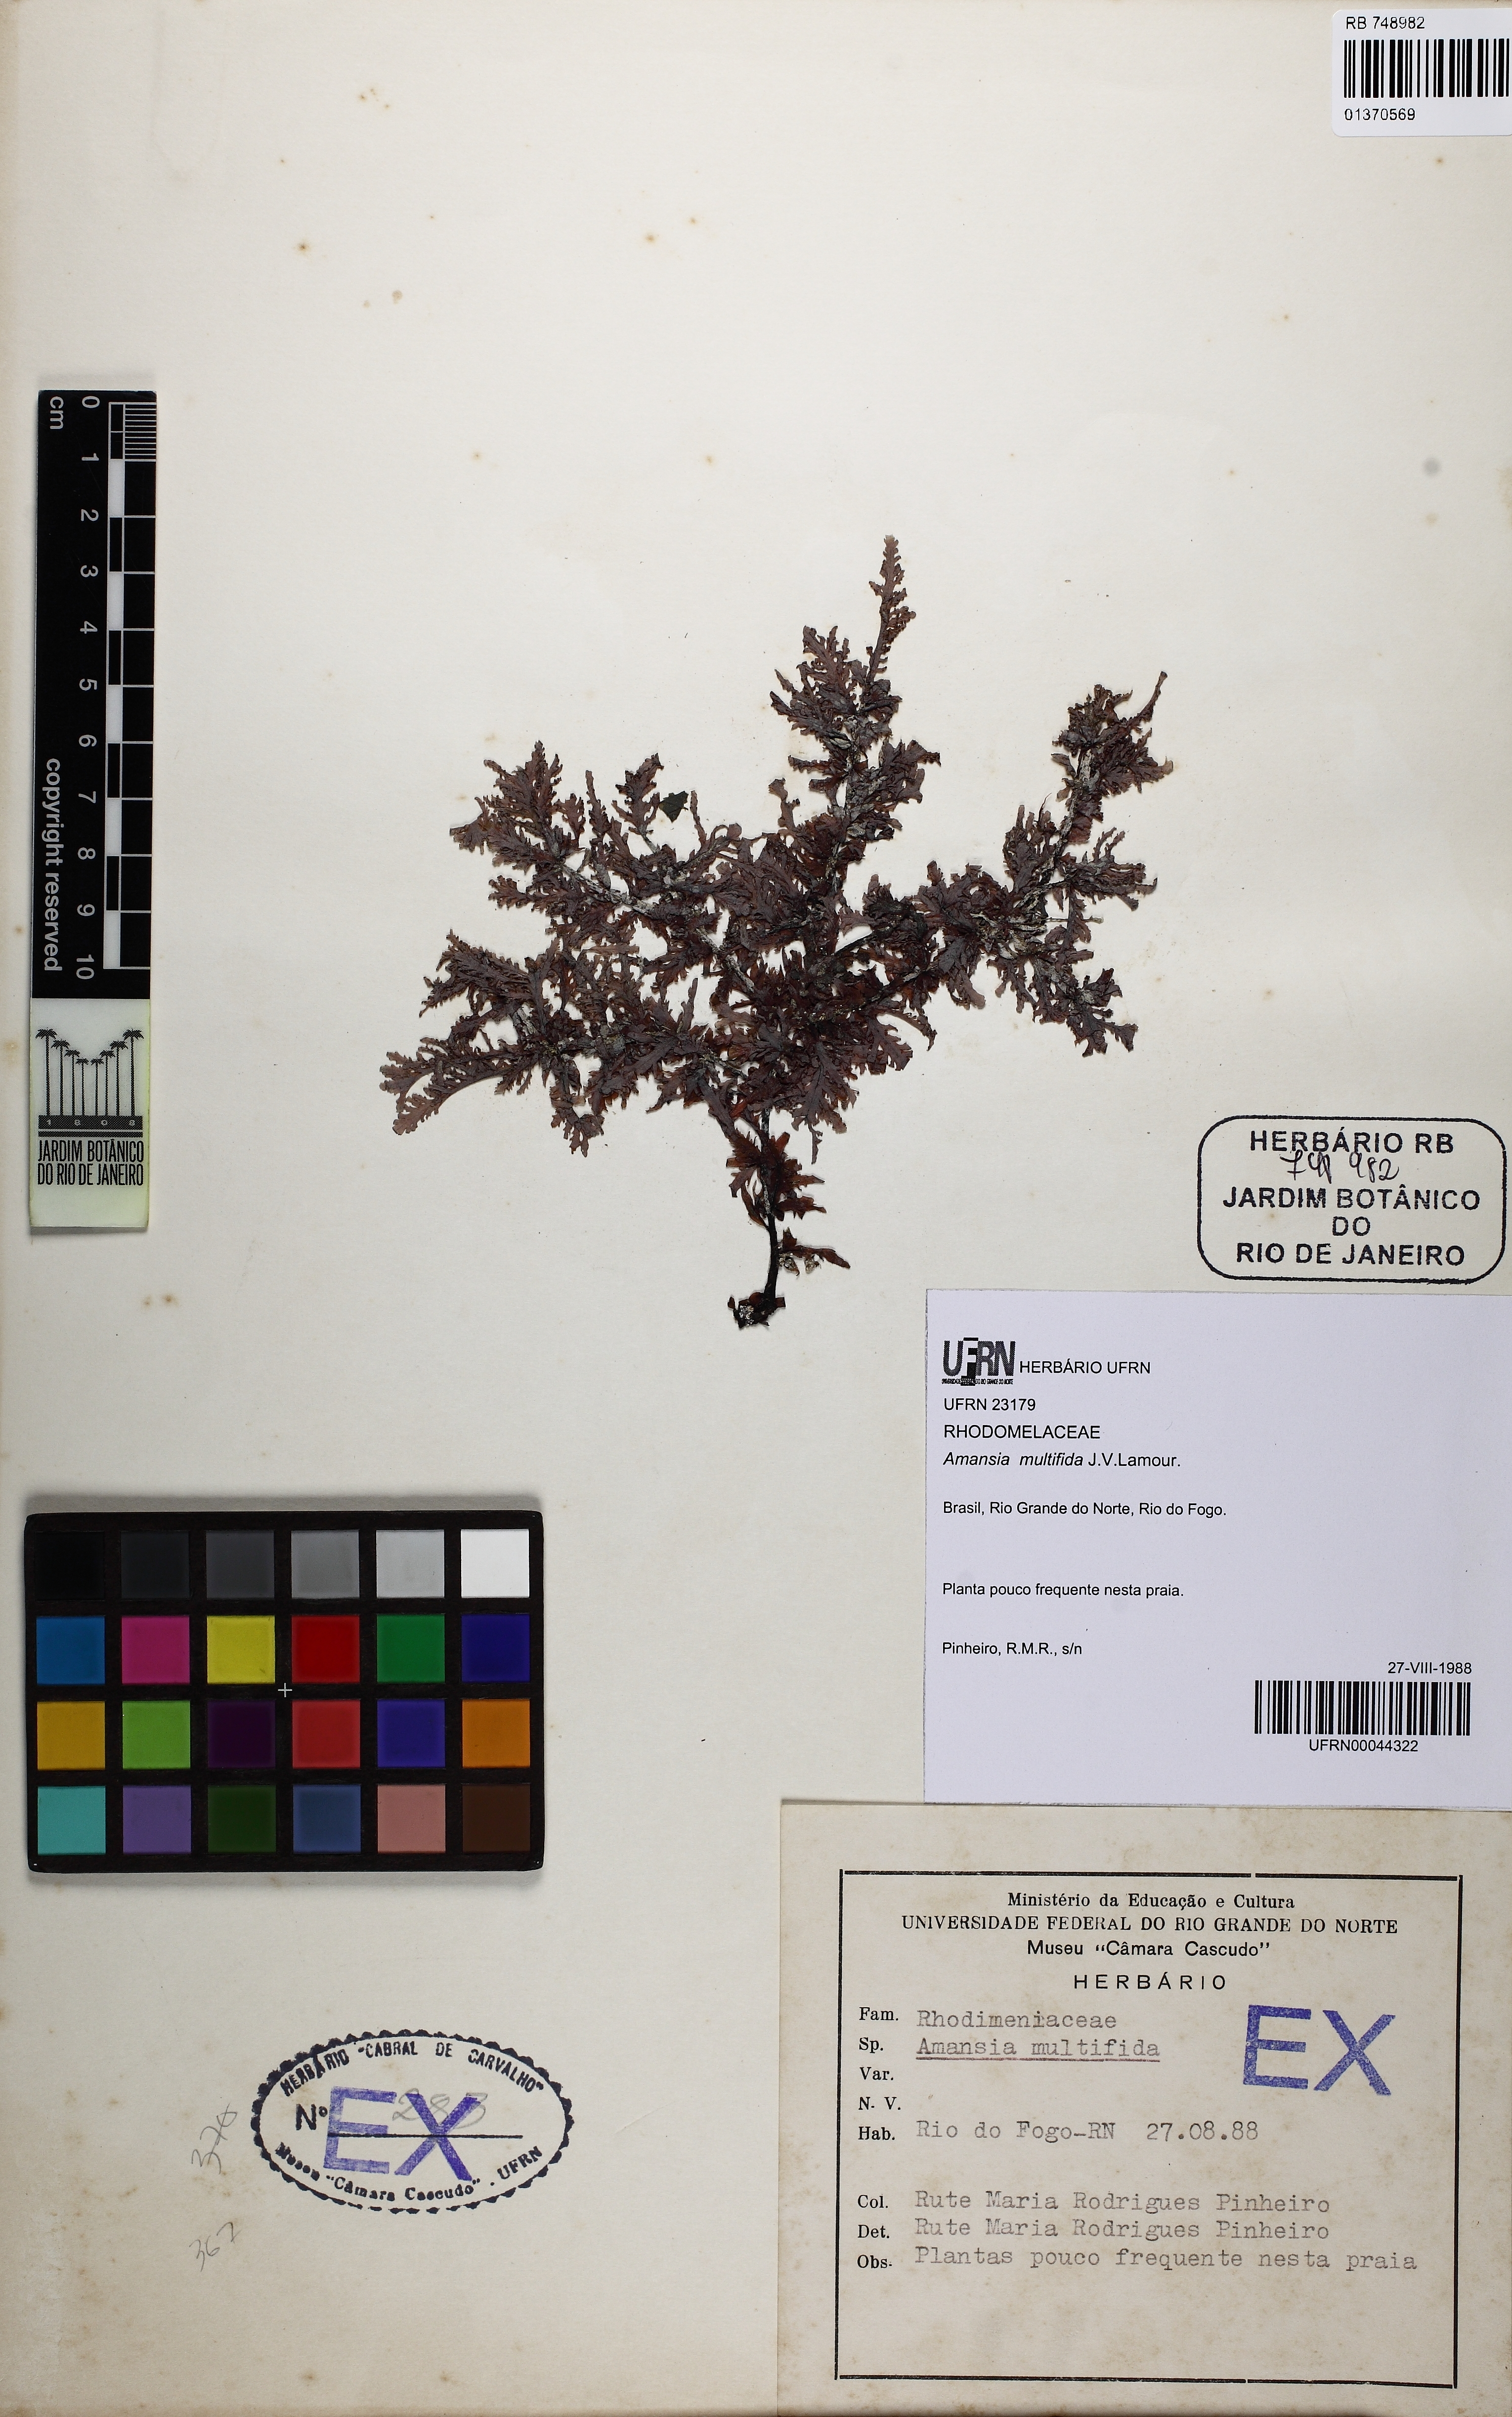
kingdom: Plantae
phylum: Rhodophyta
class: Florideophyceae
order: Ceramiales
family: Rhodomelaceae
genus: Amansia
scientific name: Amansia multifida
